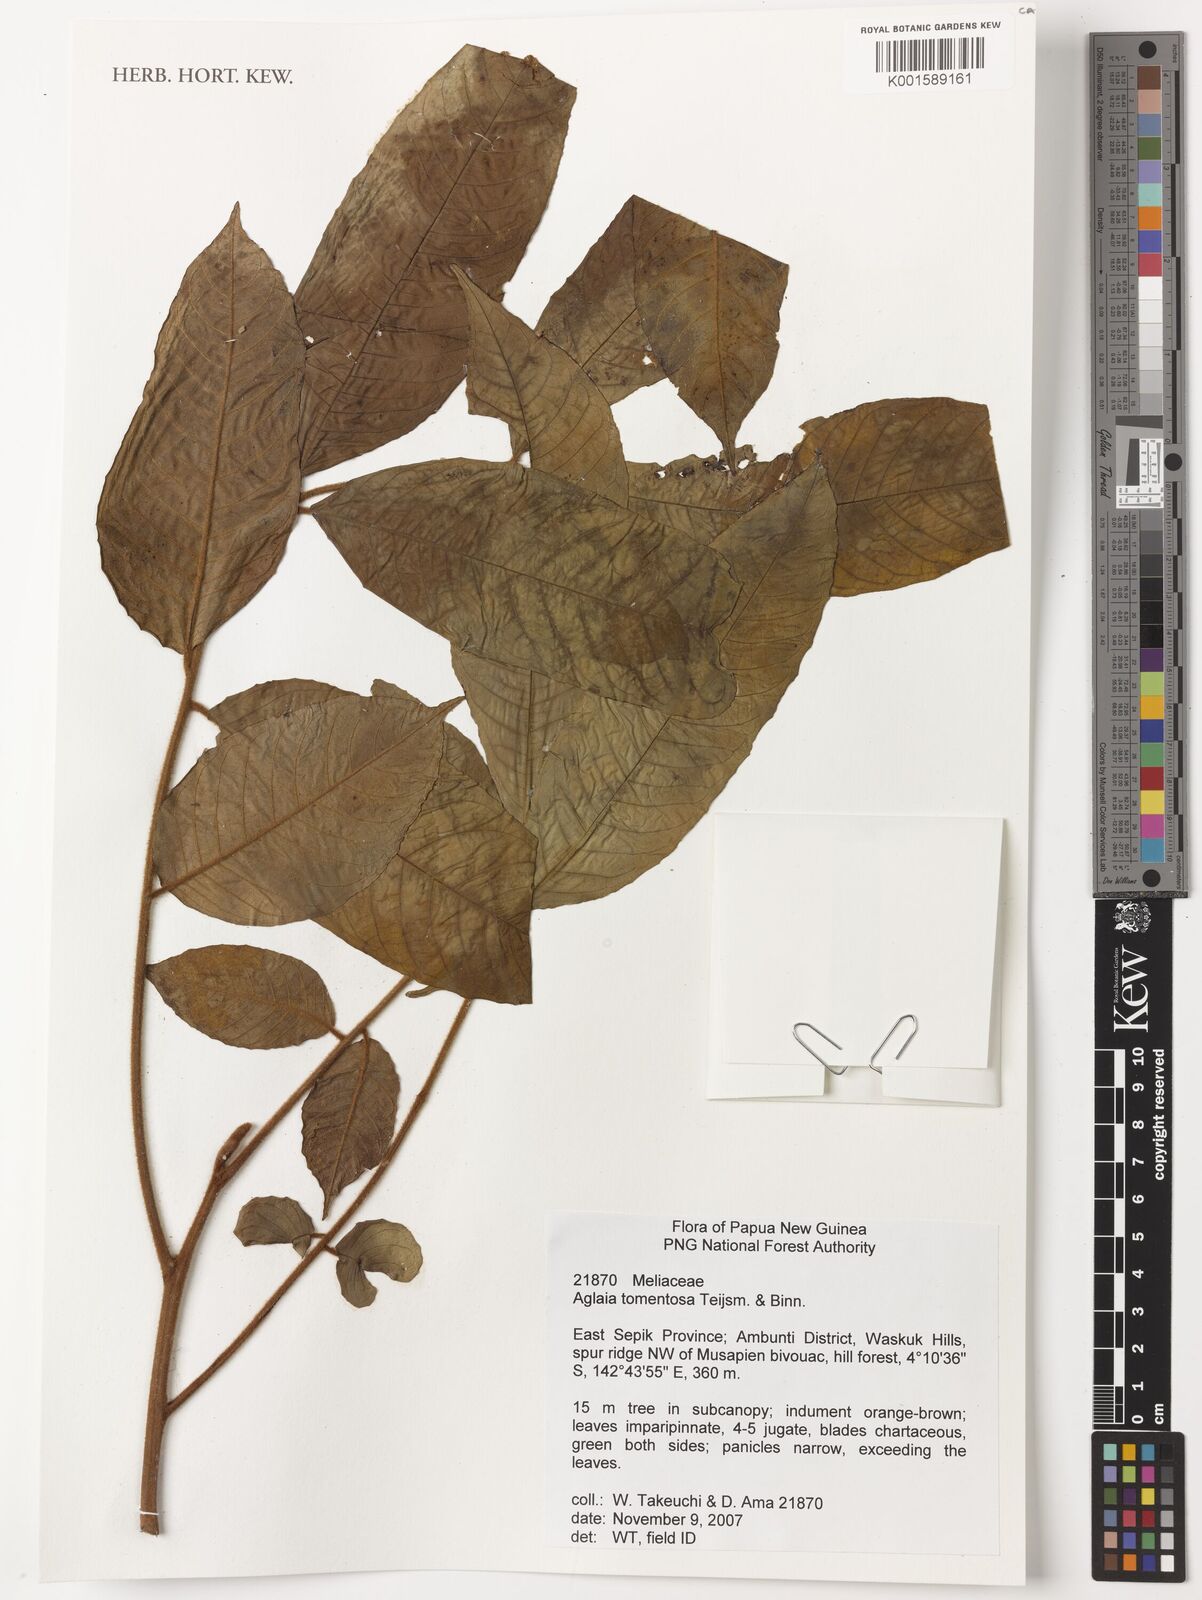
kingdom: Plantae
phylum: Tracheophyta
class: Magnoliopsida
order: Sapindales
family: Meliaceae
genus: Aglaia
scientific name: Aglaia tomentosa
